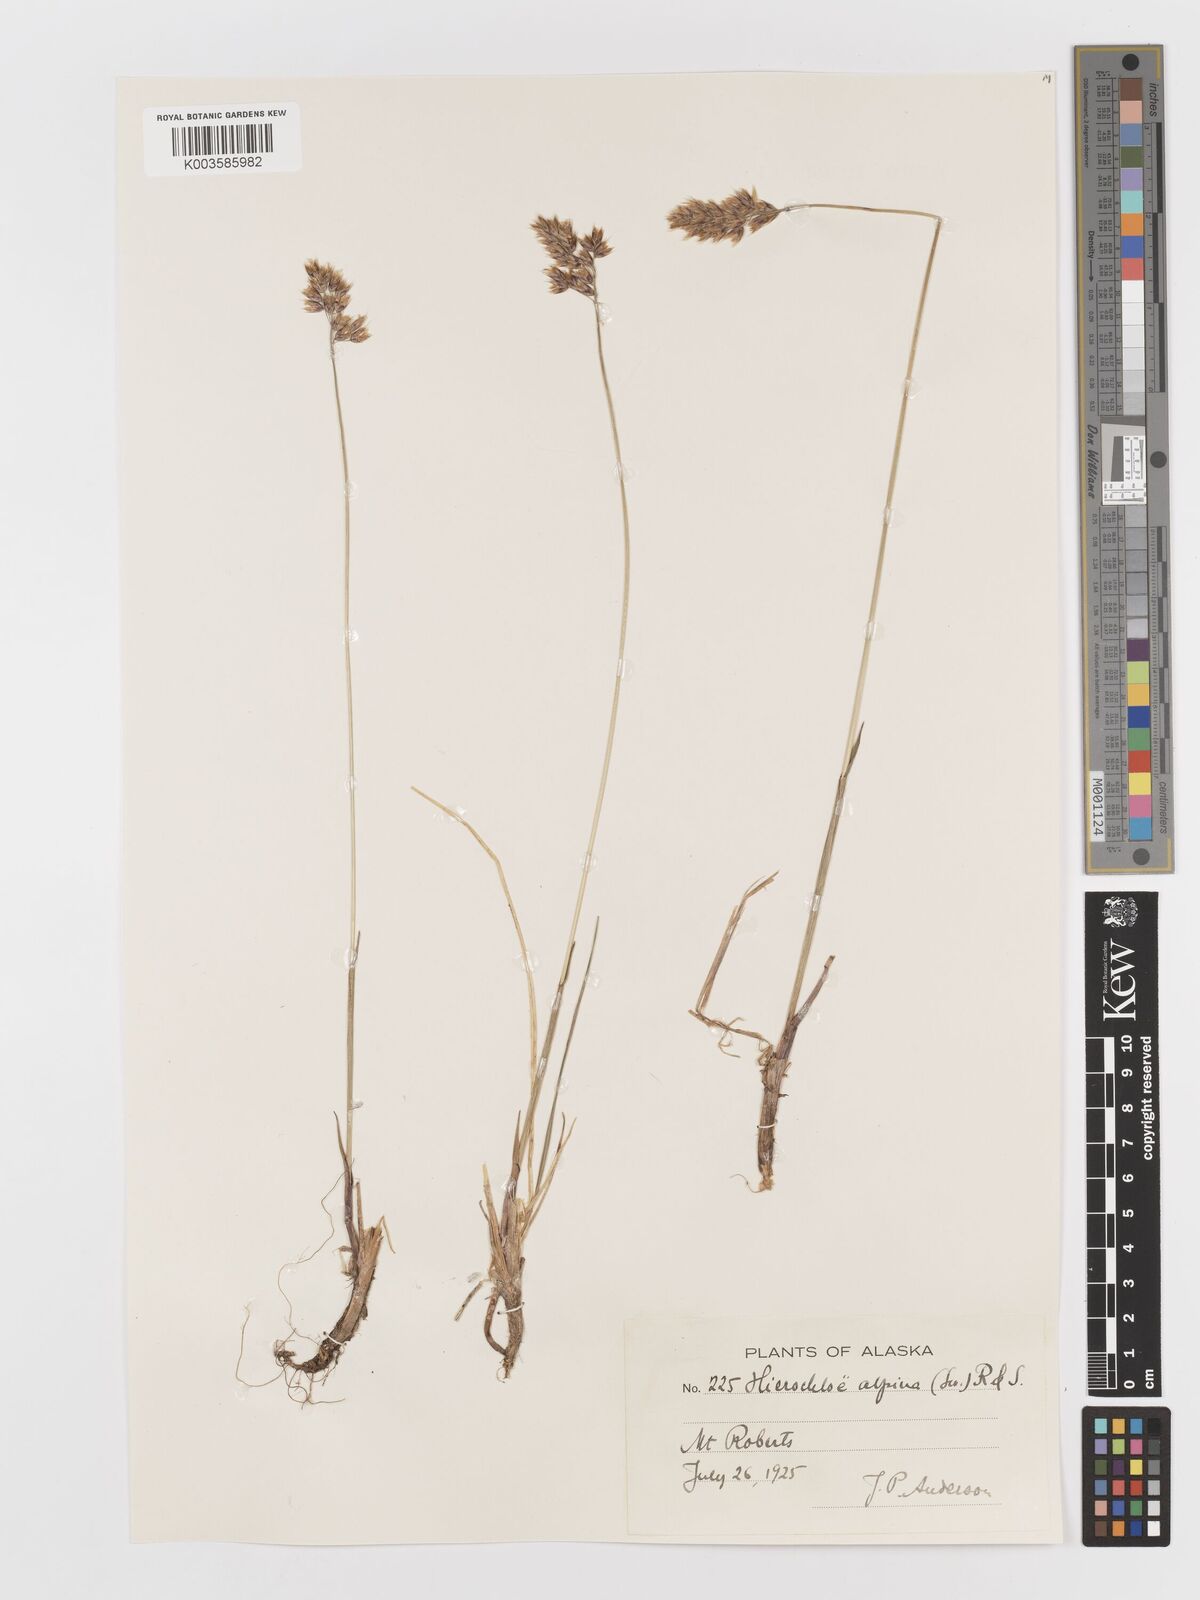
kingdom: Plantae
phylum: Tracheophyta
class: Liliopsida
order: Poales
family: Poaceae
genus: Anthoxanthum
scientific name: Anthoxanthum monticola
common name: Alpine sweetgrass
